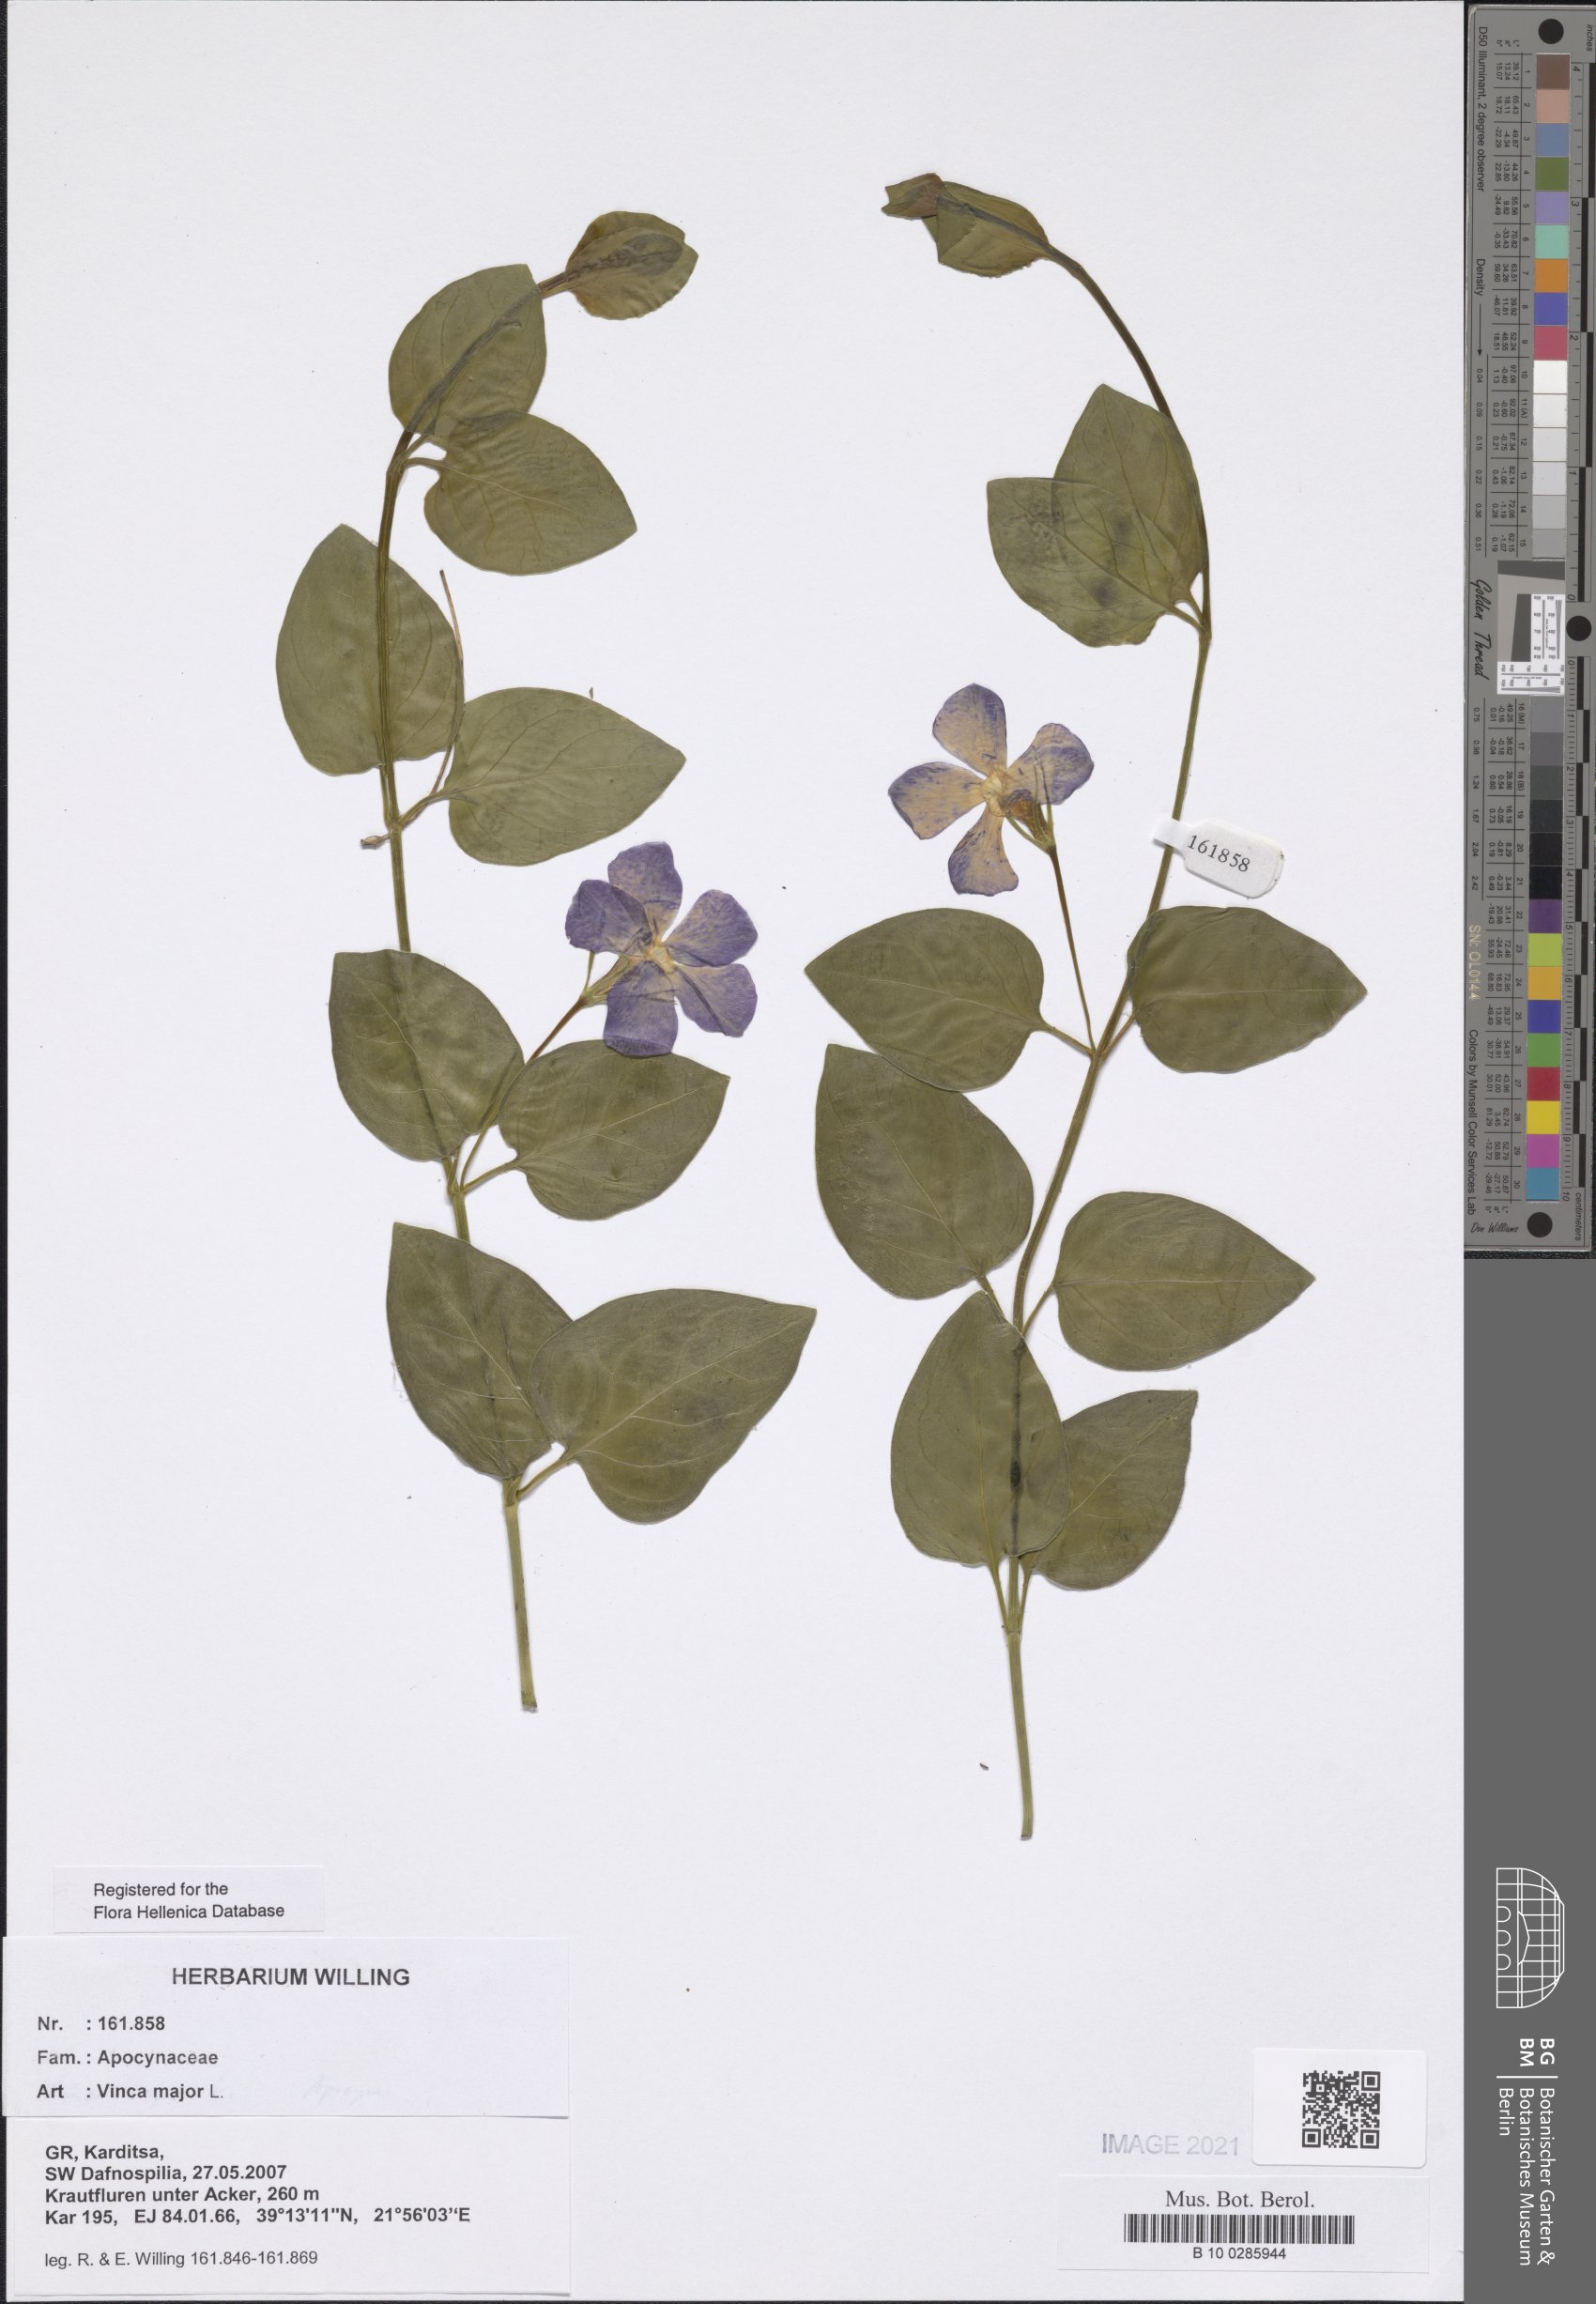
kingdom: Plantae
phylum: Tracheophyta
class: Magnoliopsida
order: Gentianales
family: Apocynaceae
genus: Vinca
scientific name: Vinca major
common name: Greater periwinkle
